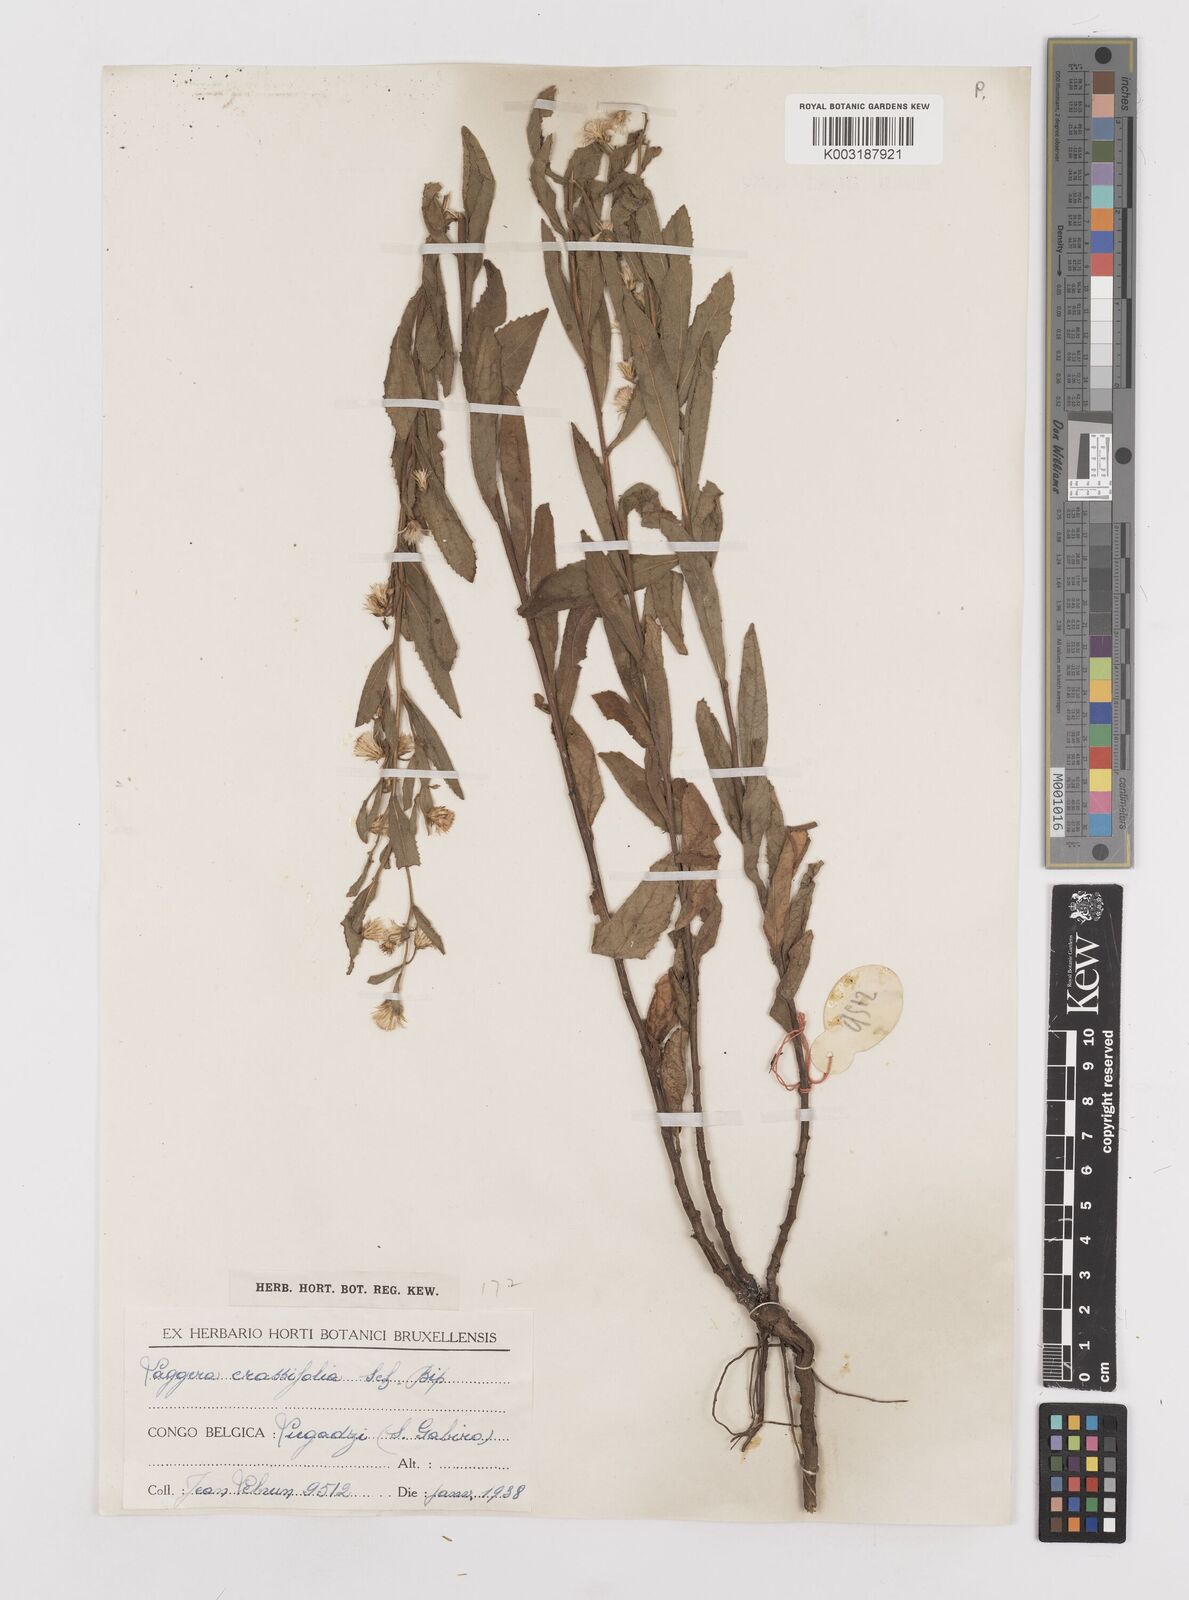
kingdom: Plantae
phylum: Tracheophyta
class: Magnoliopsida
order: Asterales
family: Asteraceae
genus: Laggera
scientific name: Laggera crassifolia
